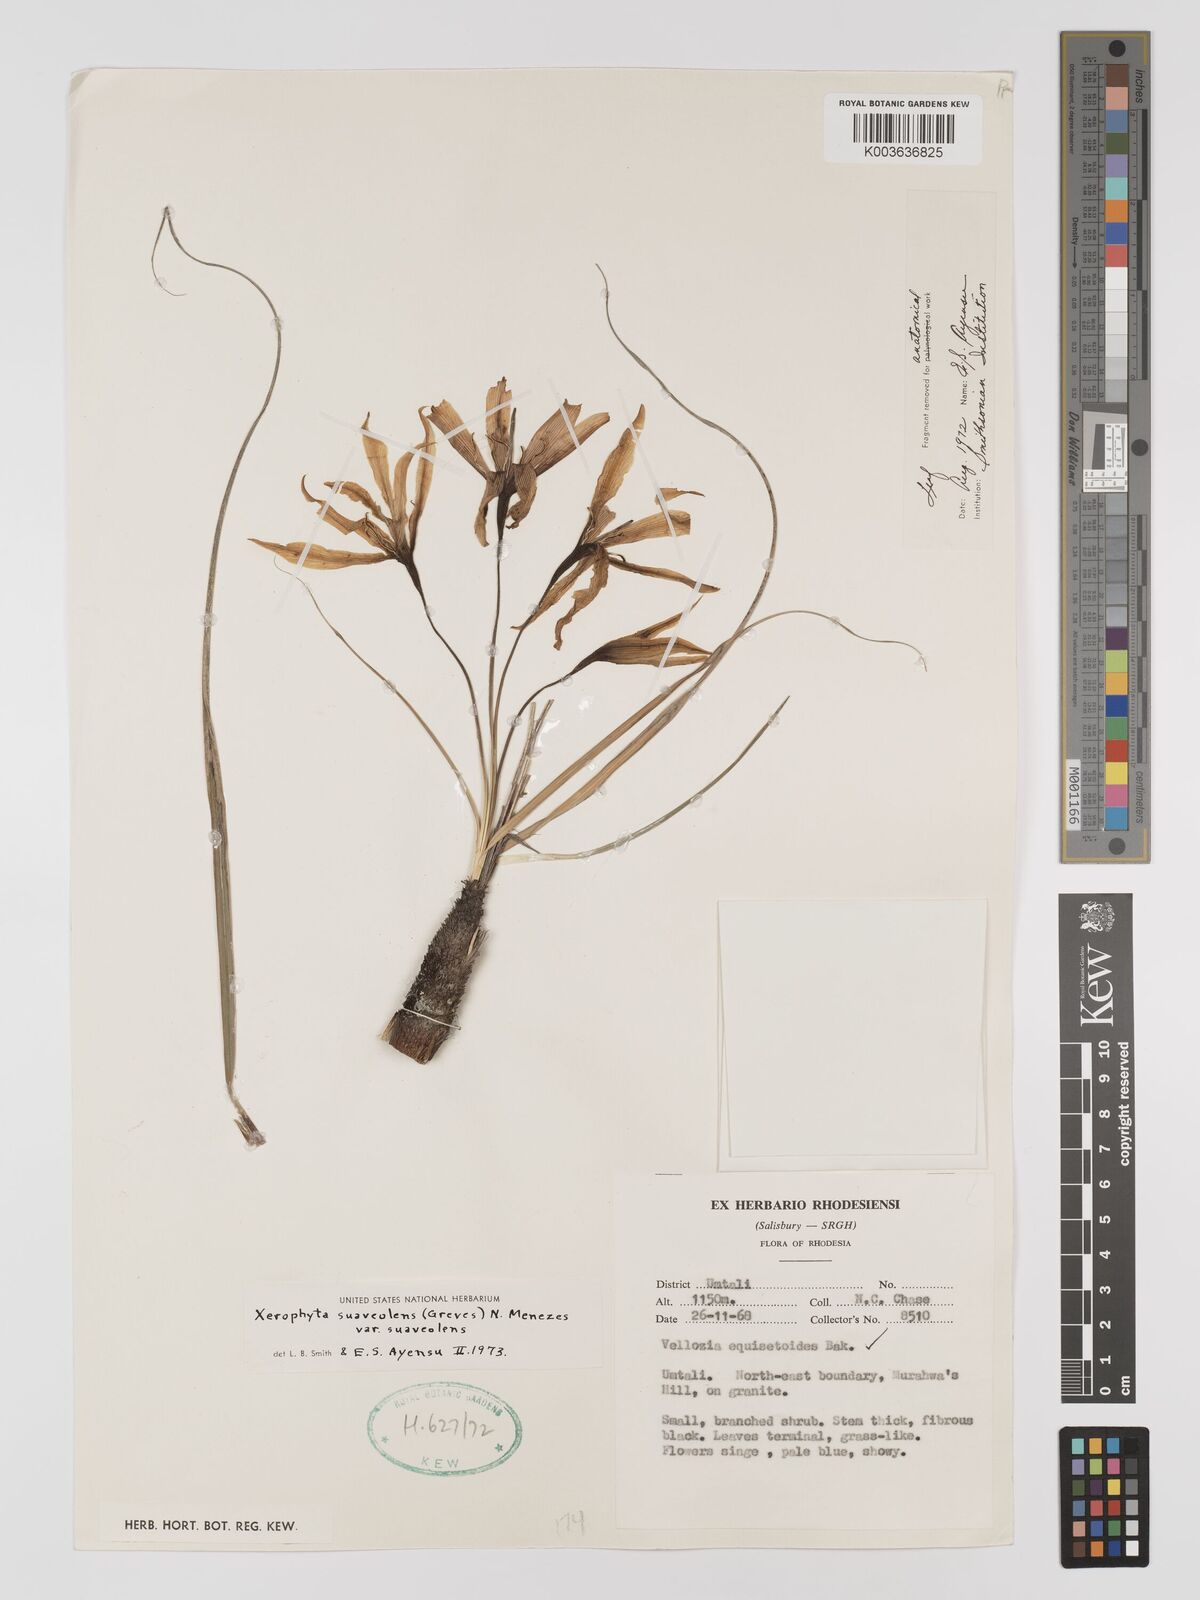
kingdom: Plantae
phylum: Tracheophyta
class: Liliopsida
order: Pandanales
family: Velloziaceae
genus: Xerophyta
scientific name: Xerophyta suaveolens
